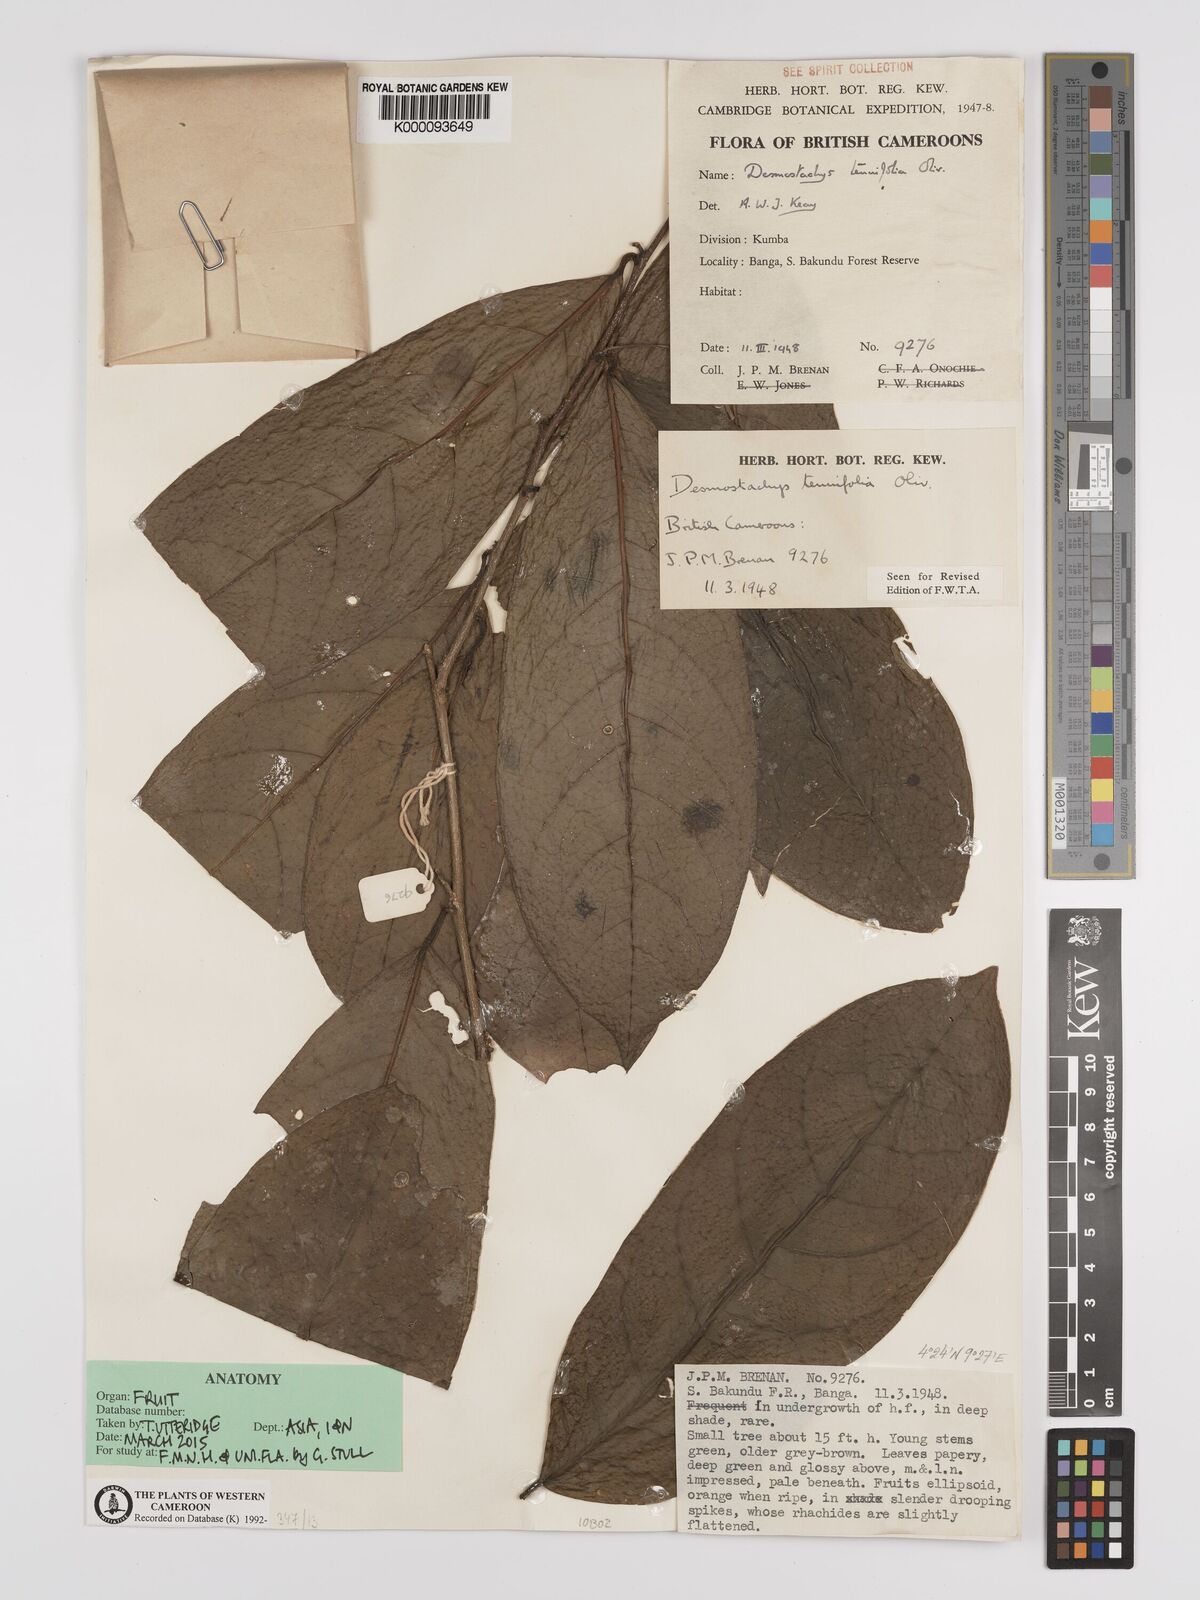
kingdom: Plantae
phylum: Tracheophyta
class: Magnoliopsida
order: Icacinales
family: Icacinaceae
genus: Vadensea
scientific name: Vadensea tenuifolia
